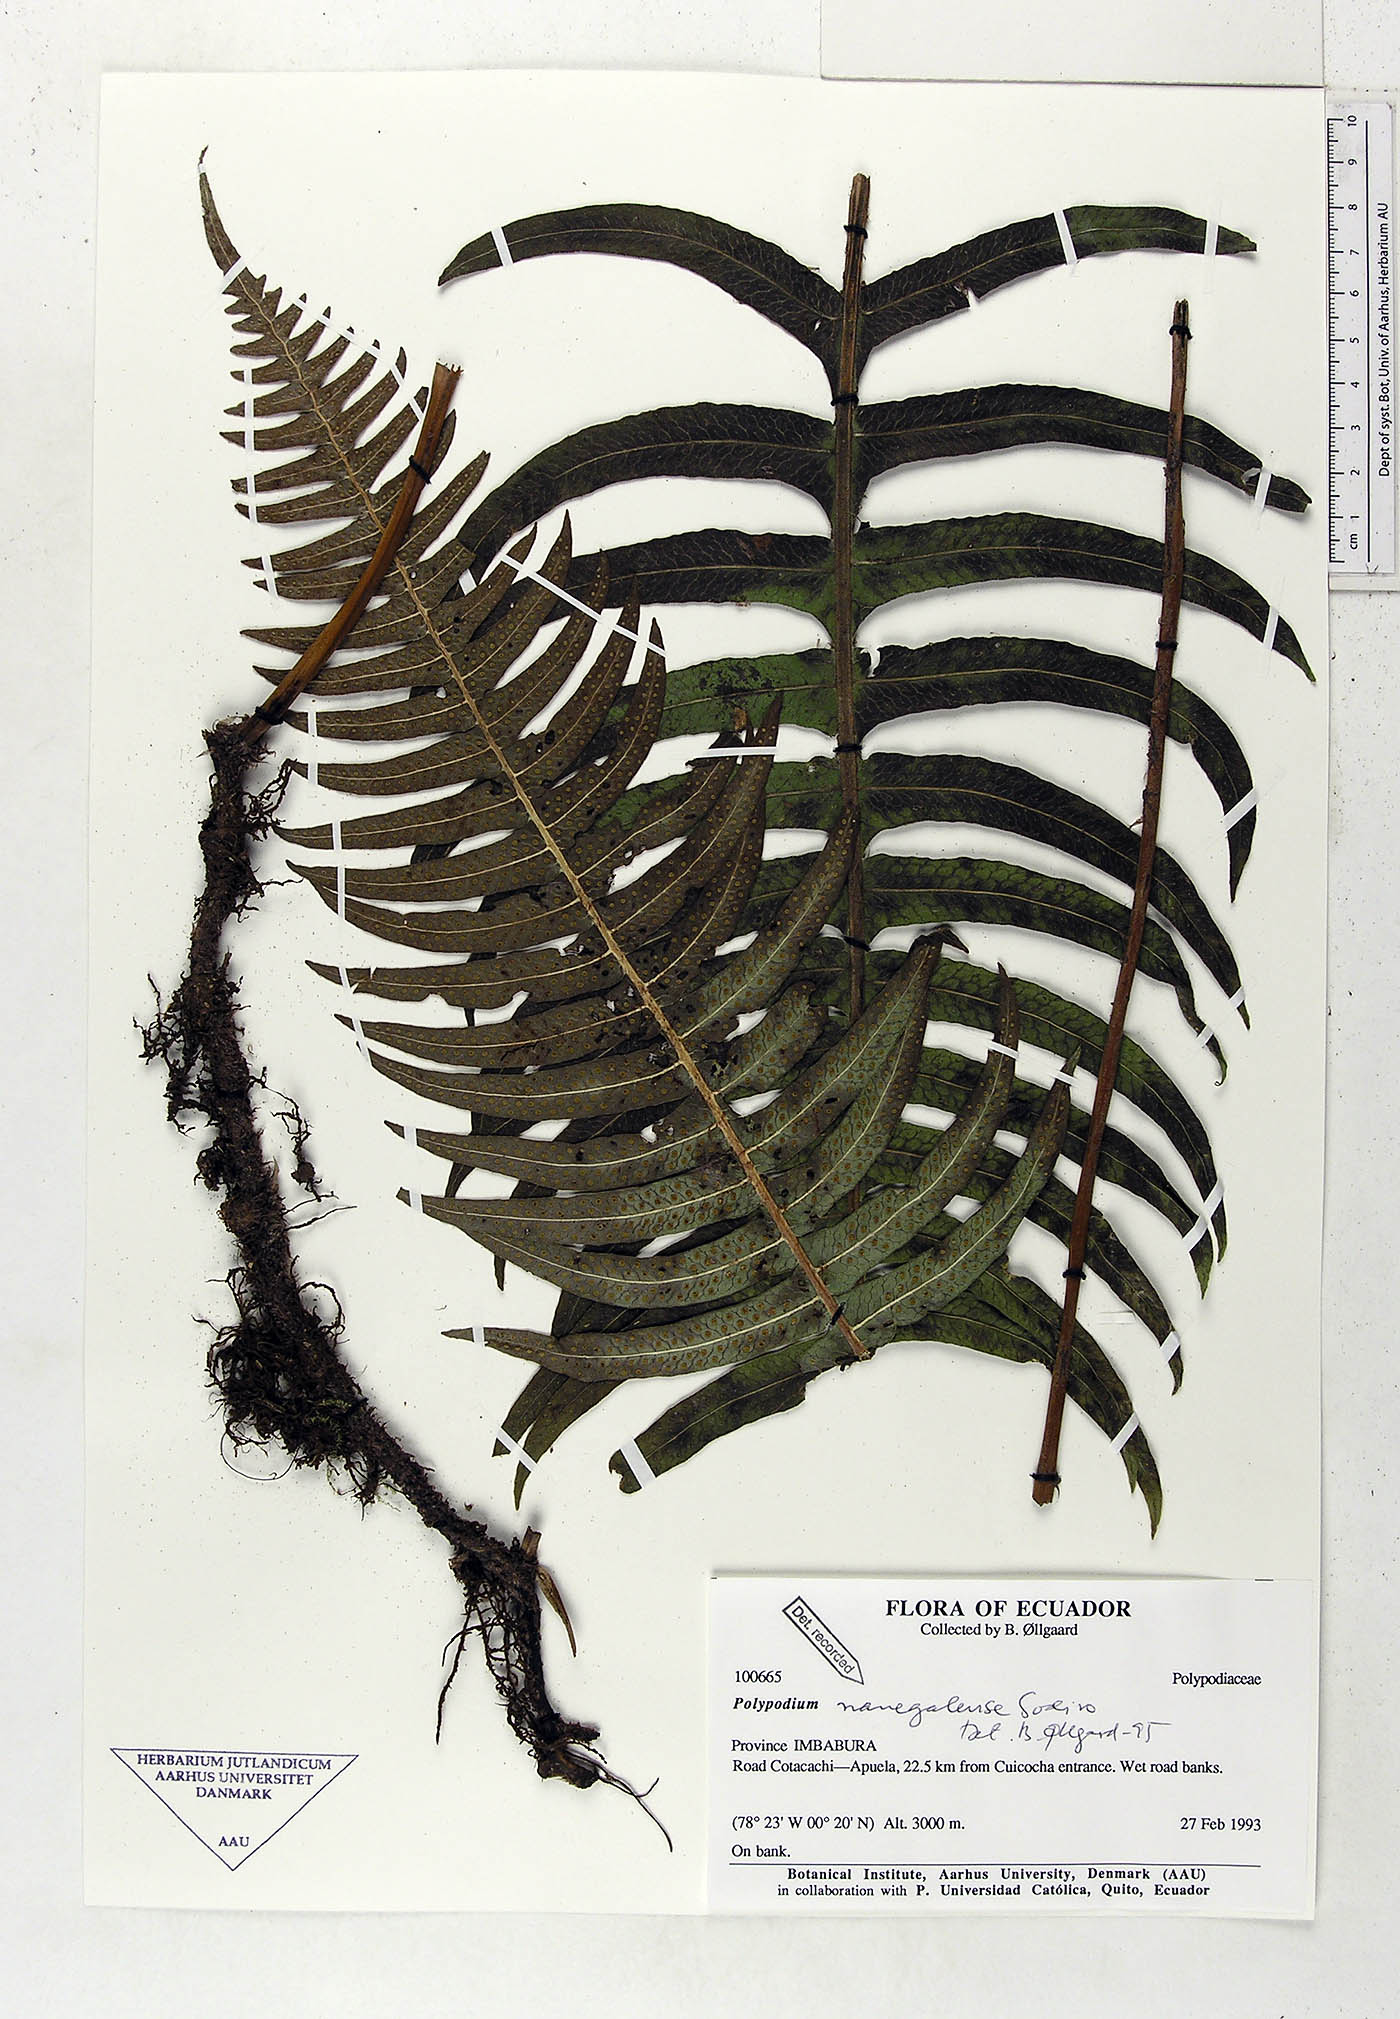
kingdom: Plantae
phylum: Tracheophyta
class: Polypodiopsida
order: Polypodiales
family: Polypodiaceae
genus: Serpocaulon
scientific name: Serpocaulon nanegalense
